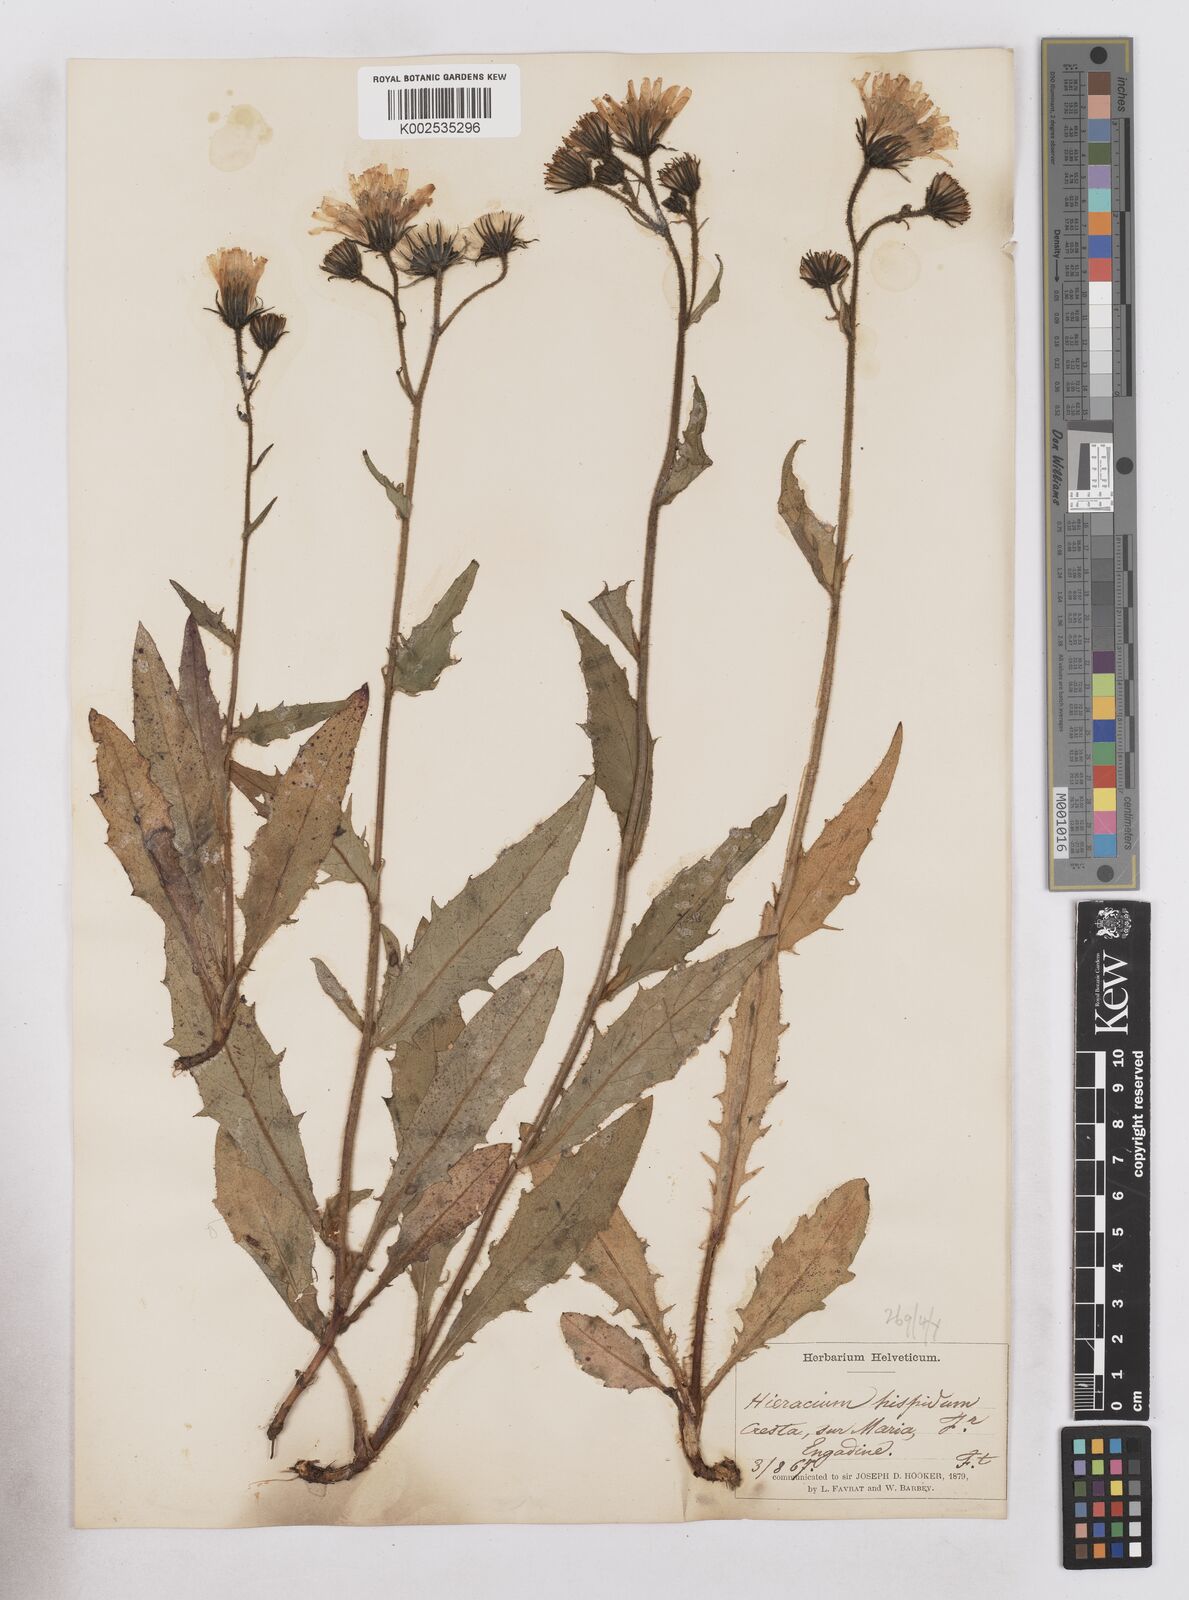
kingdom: Plantae
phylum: Tracheophyta
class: Magnoliopsida
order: Asterales
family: Asteraceae
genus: Hieracium
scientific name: Hieracium bocconei
